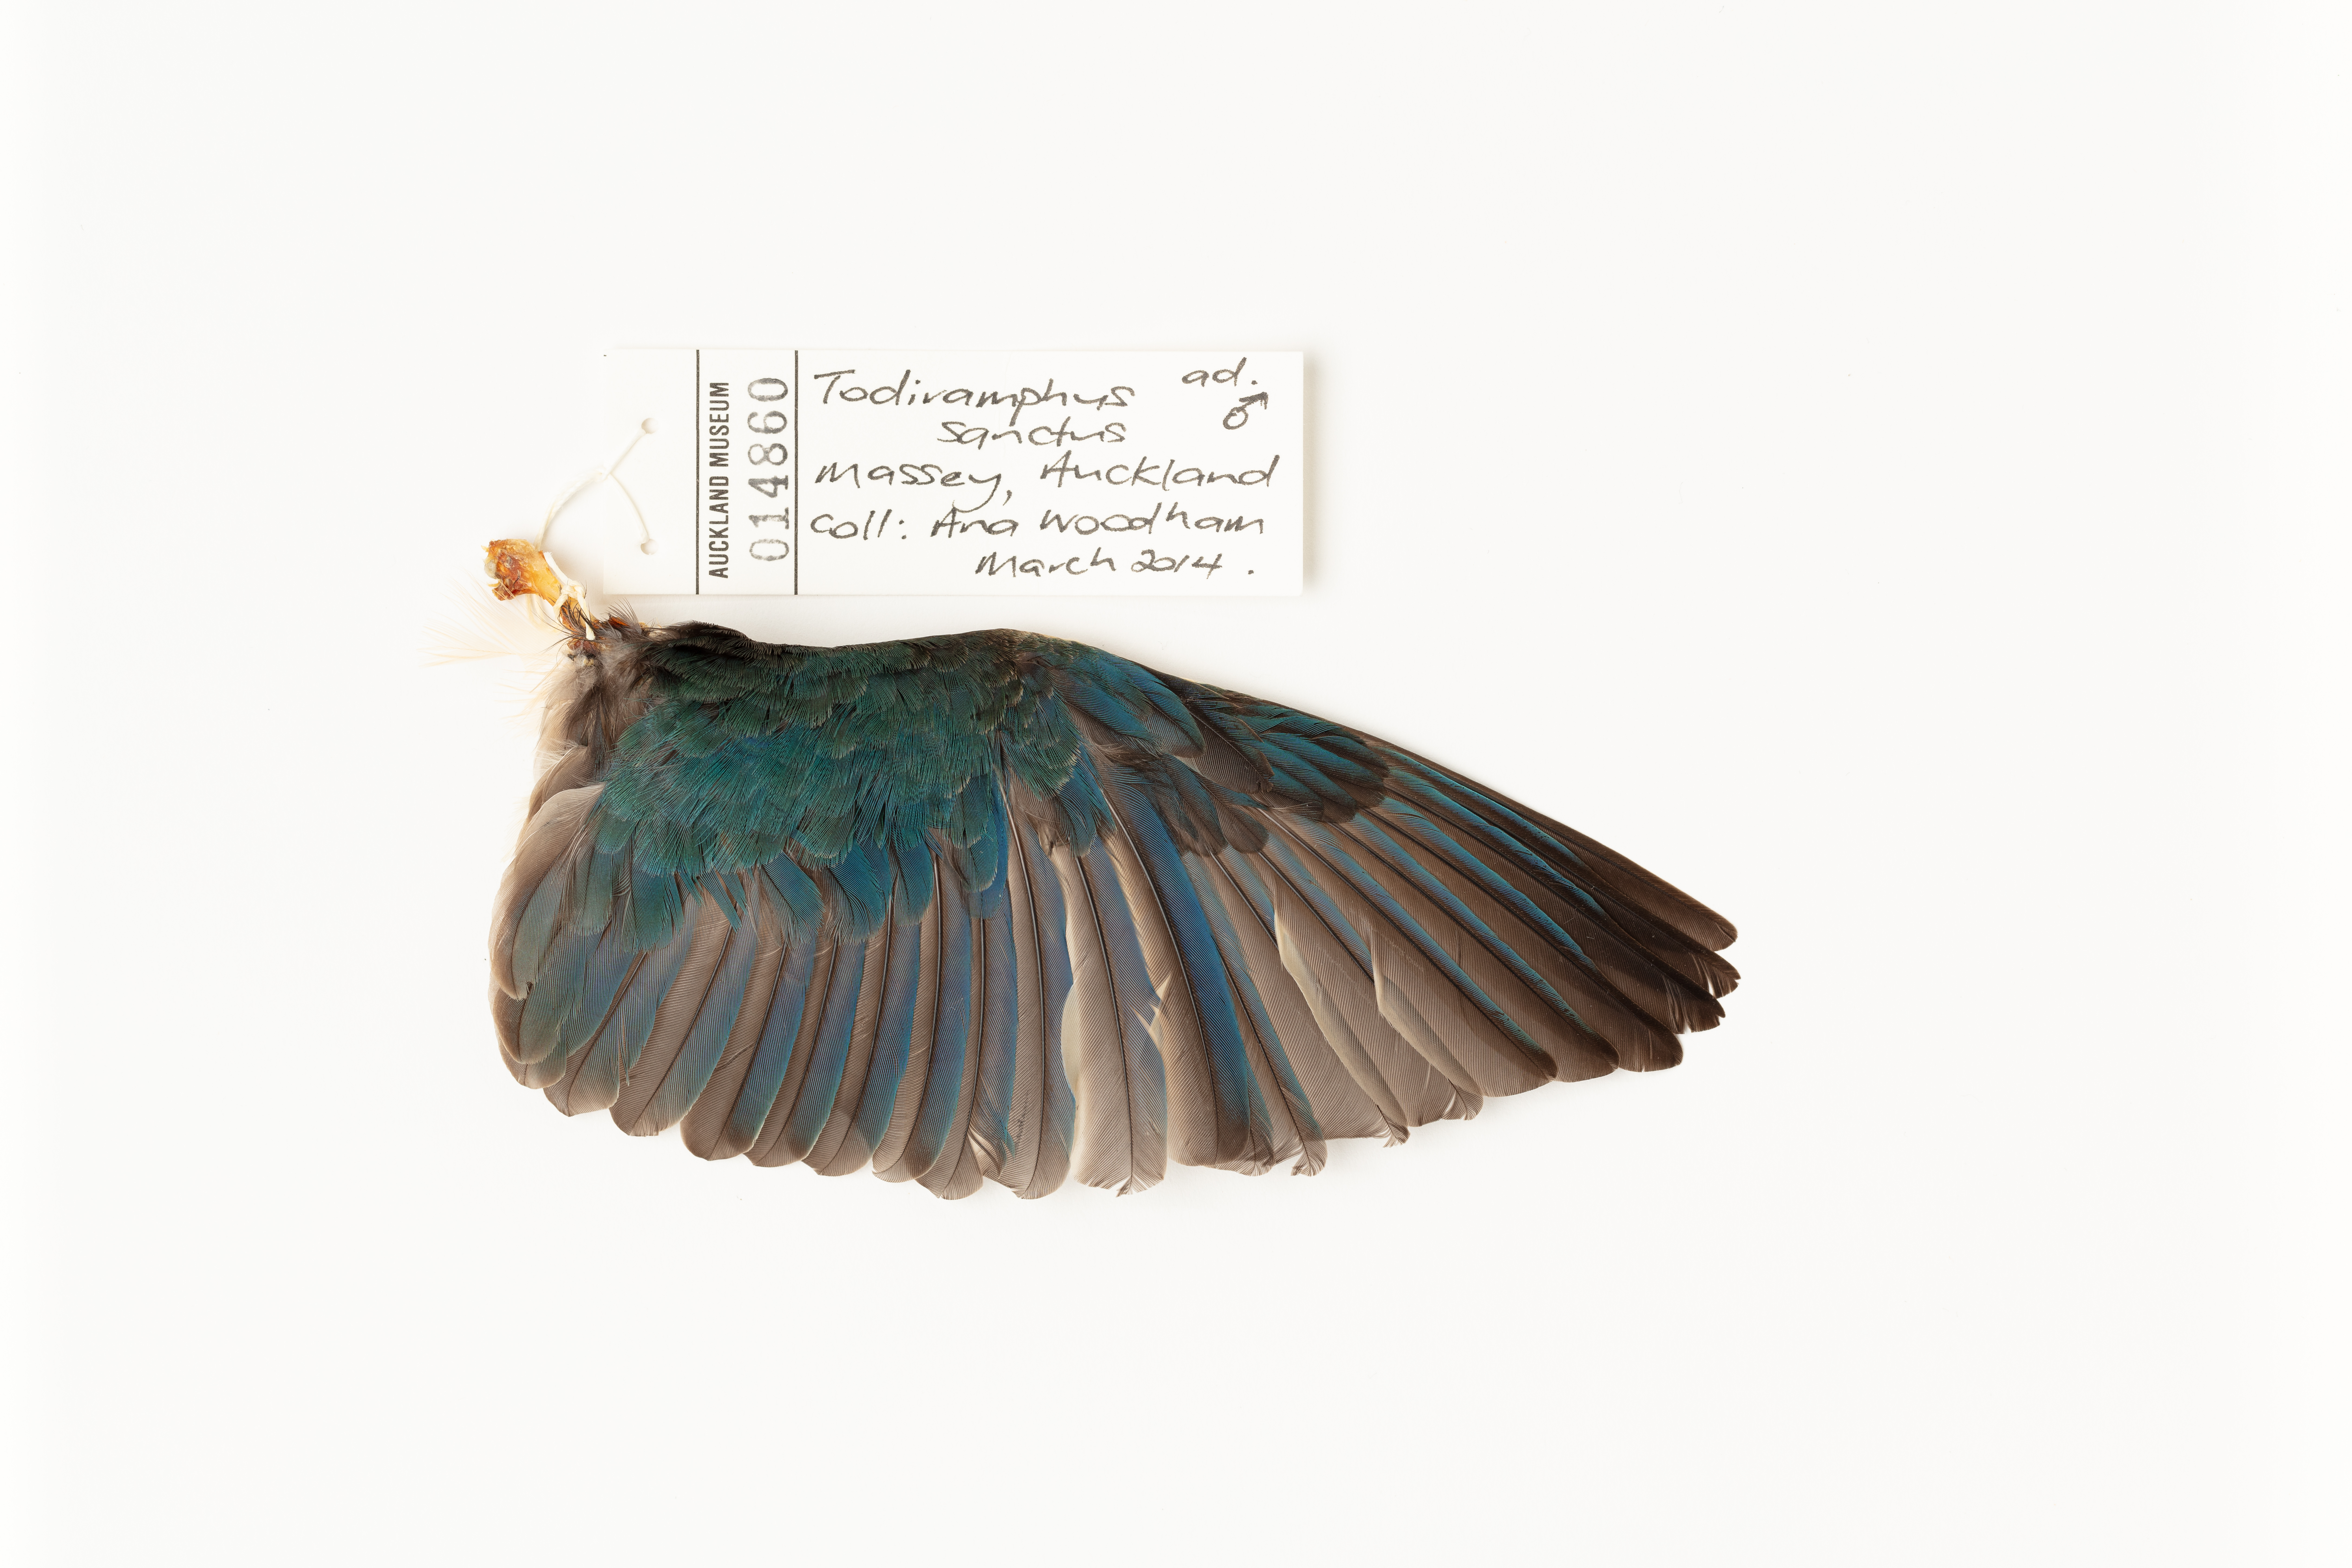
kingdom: Animalia
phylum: Chordata
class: Aves
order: Coraciiformes
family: Alcedinidae
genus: Todiramphus
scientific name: Todiramphus sanctus
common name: Sacred kingfisher
